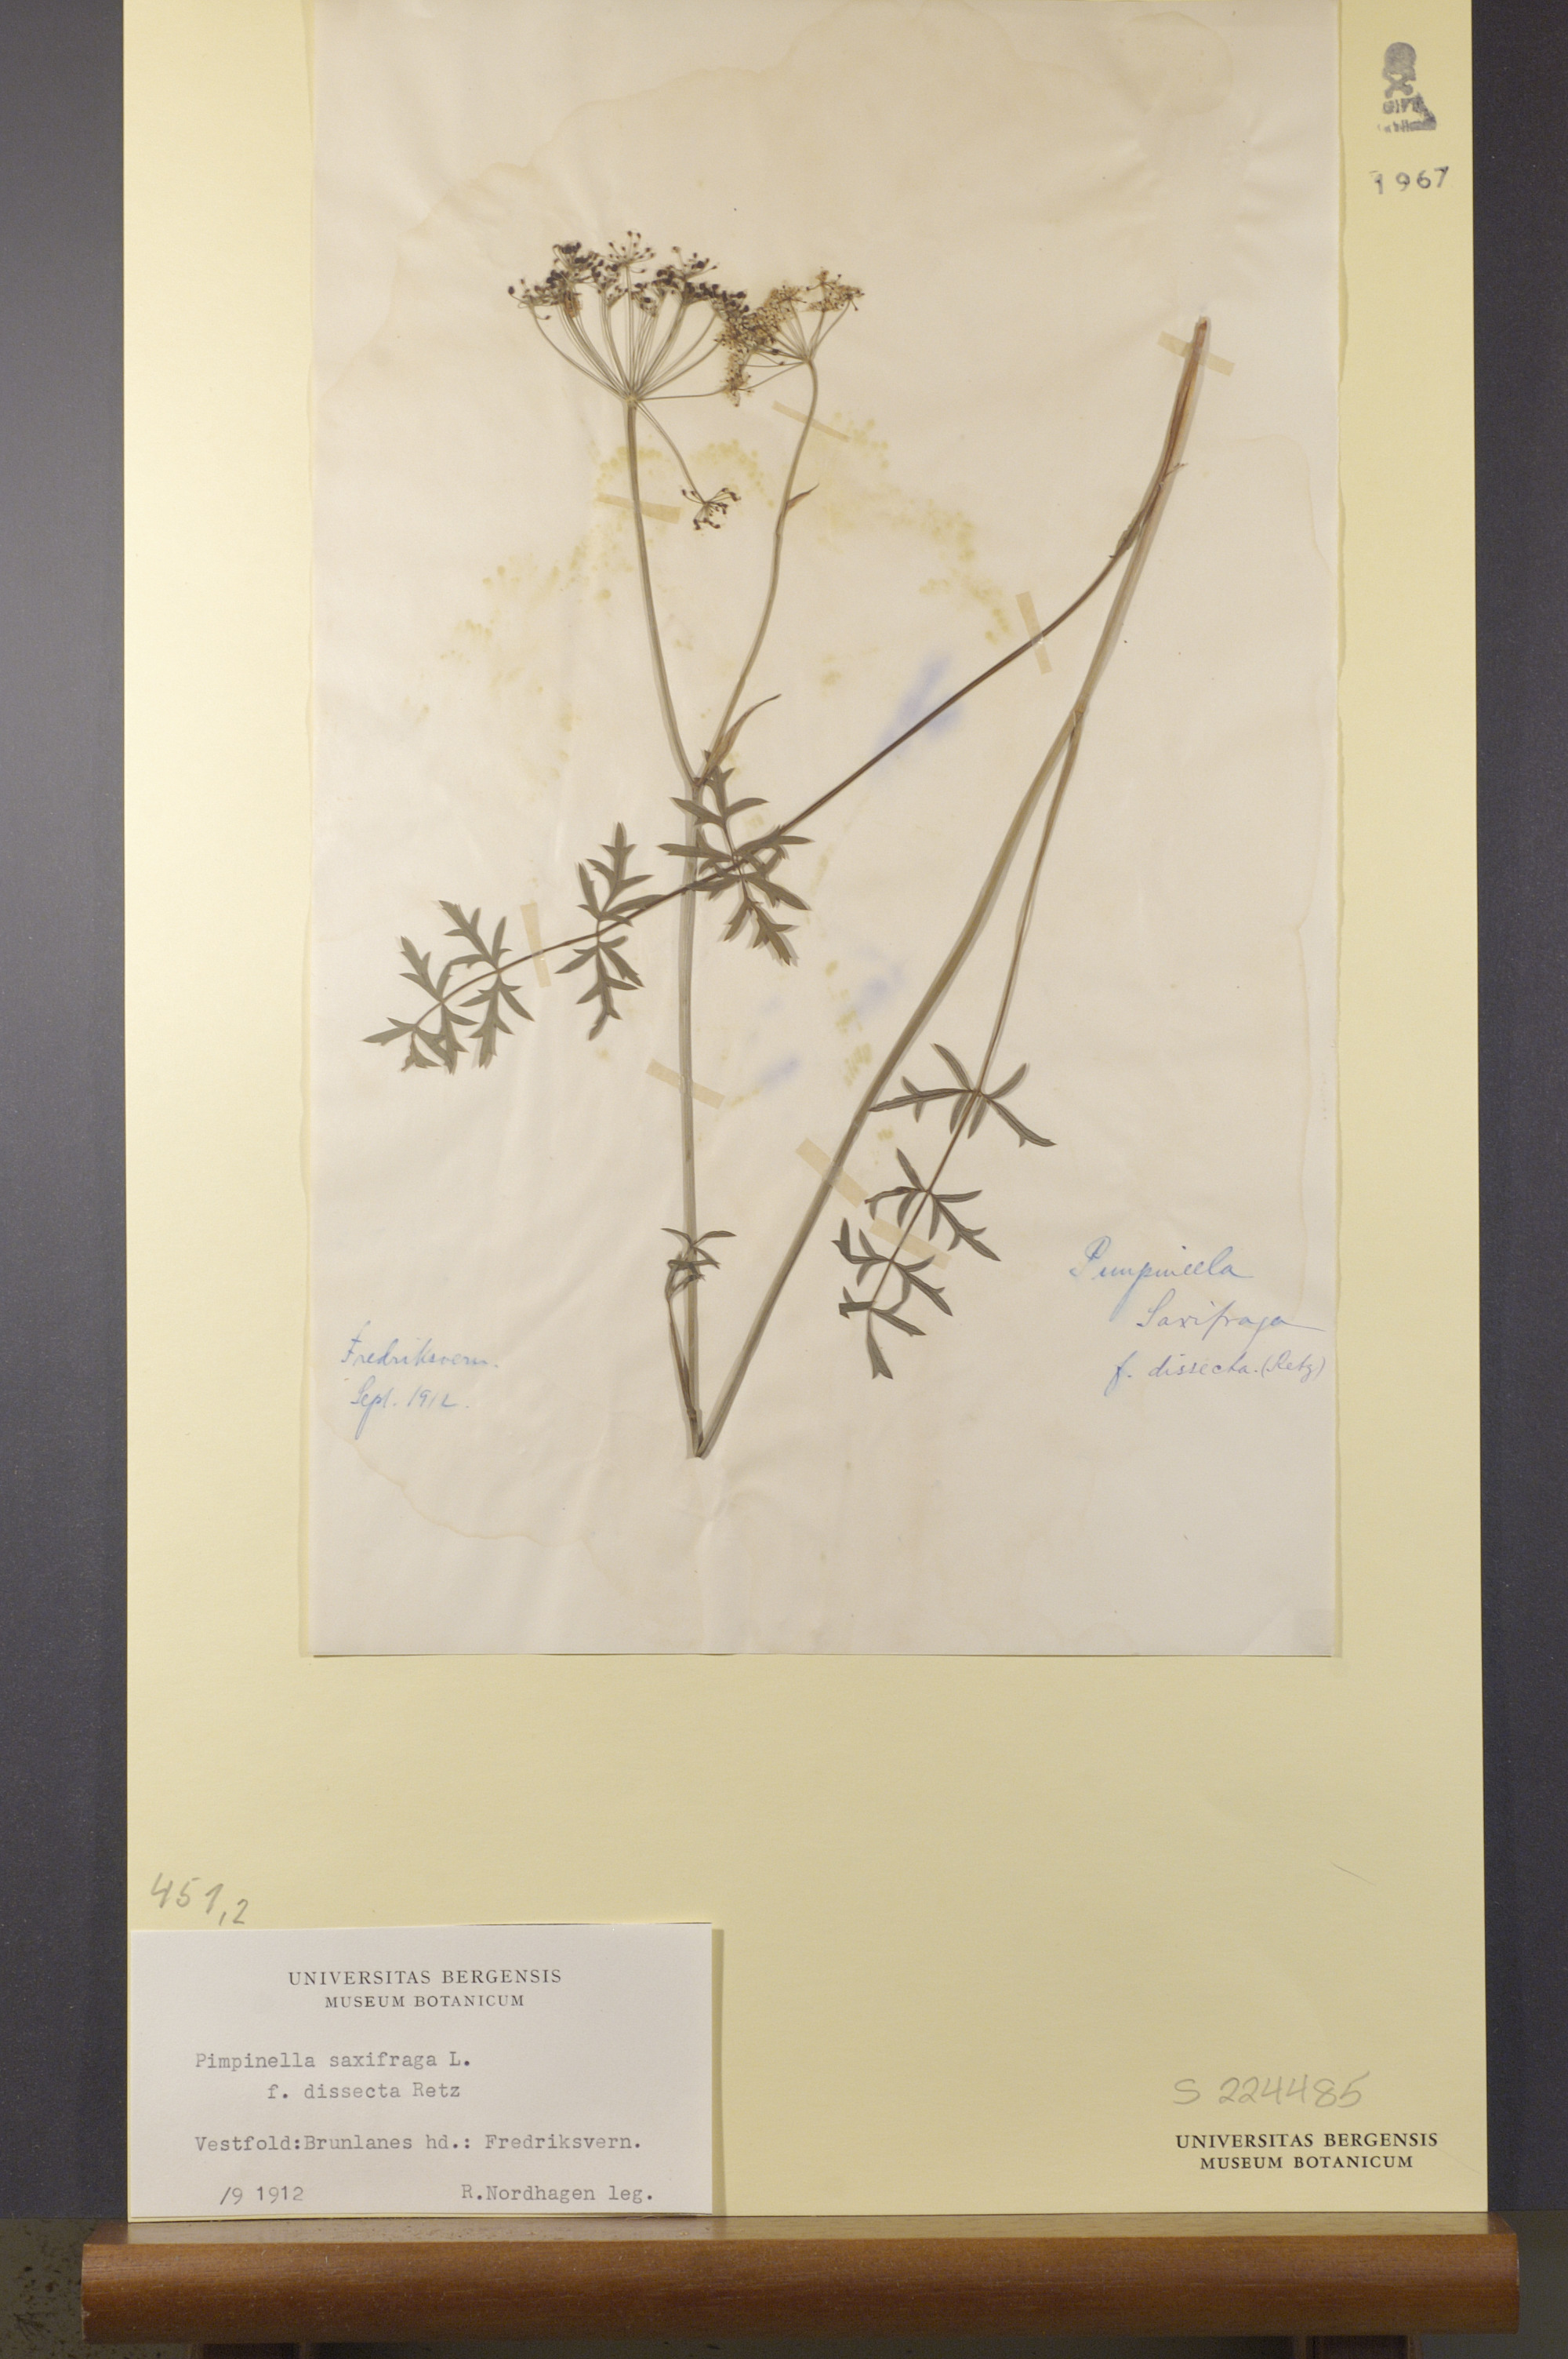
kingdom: Plantae
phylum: Tracheophyta
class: Magnoliopsida
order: Apiales
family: Apiaceae
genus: Pimpinella
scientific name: Pimpinella saxifraga
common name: Burnet-saxifrage
